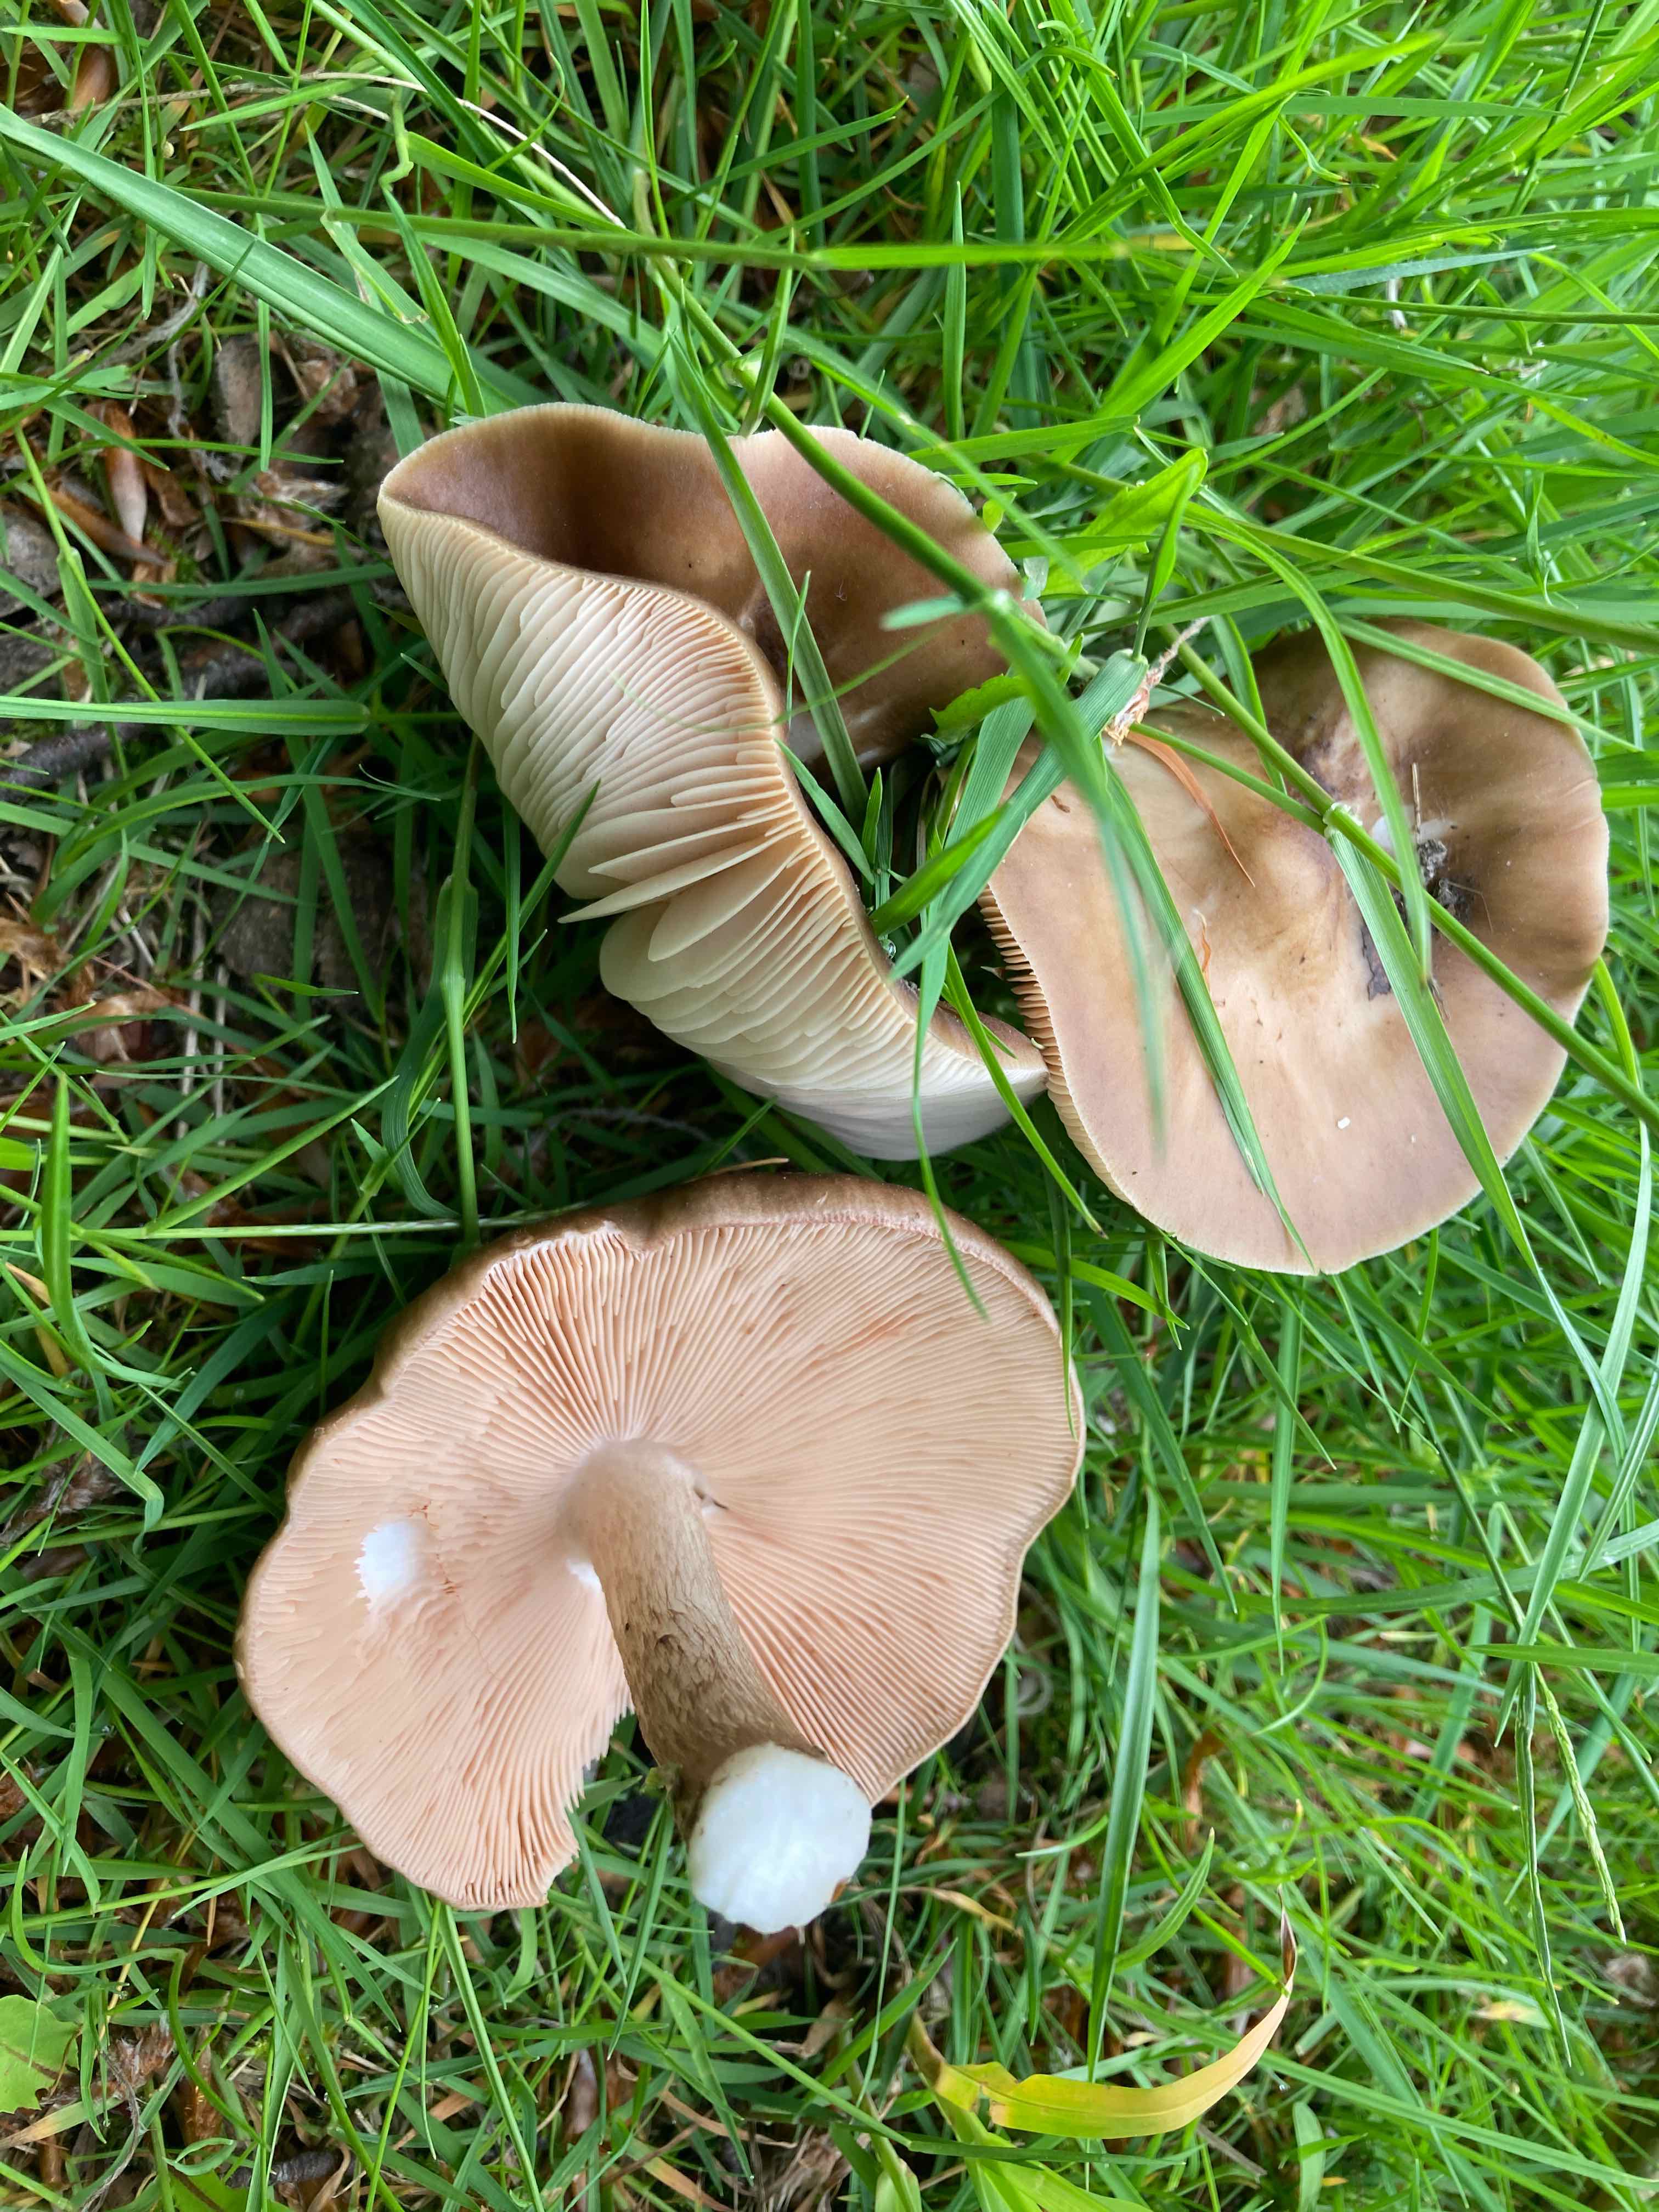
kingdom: Fungi
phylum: Basidiomycota
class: Agaricomycetes
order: Agaricales
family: Pluteaceae
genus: Pluteus
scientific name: Pluteus cervinus
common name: sodfarvet skærmhat
